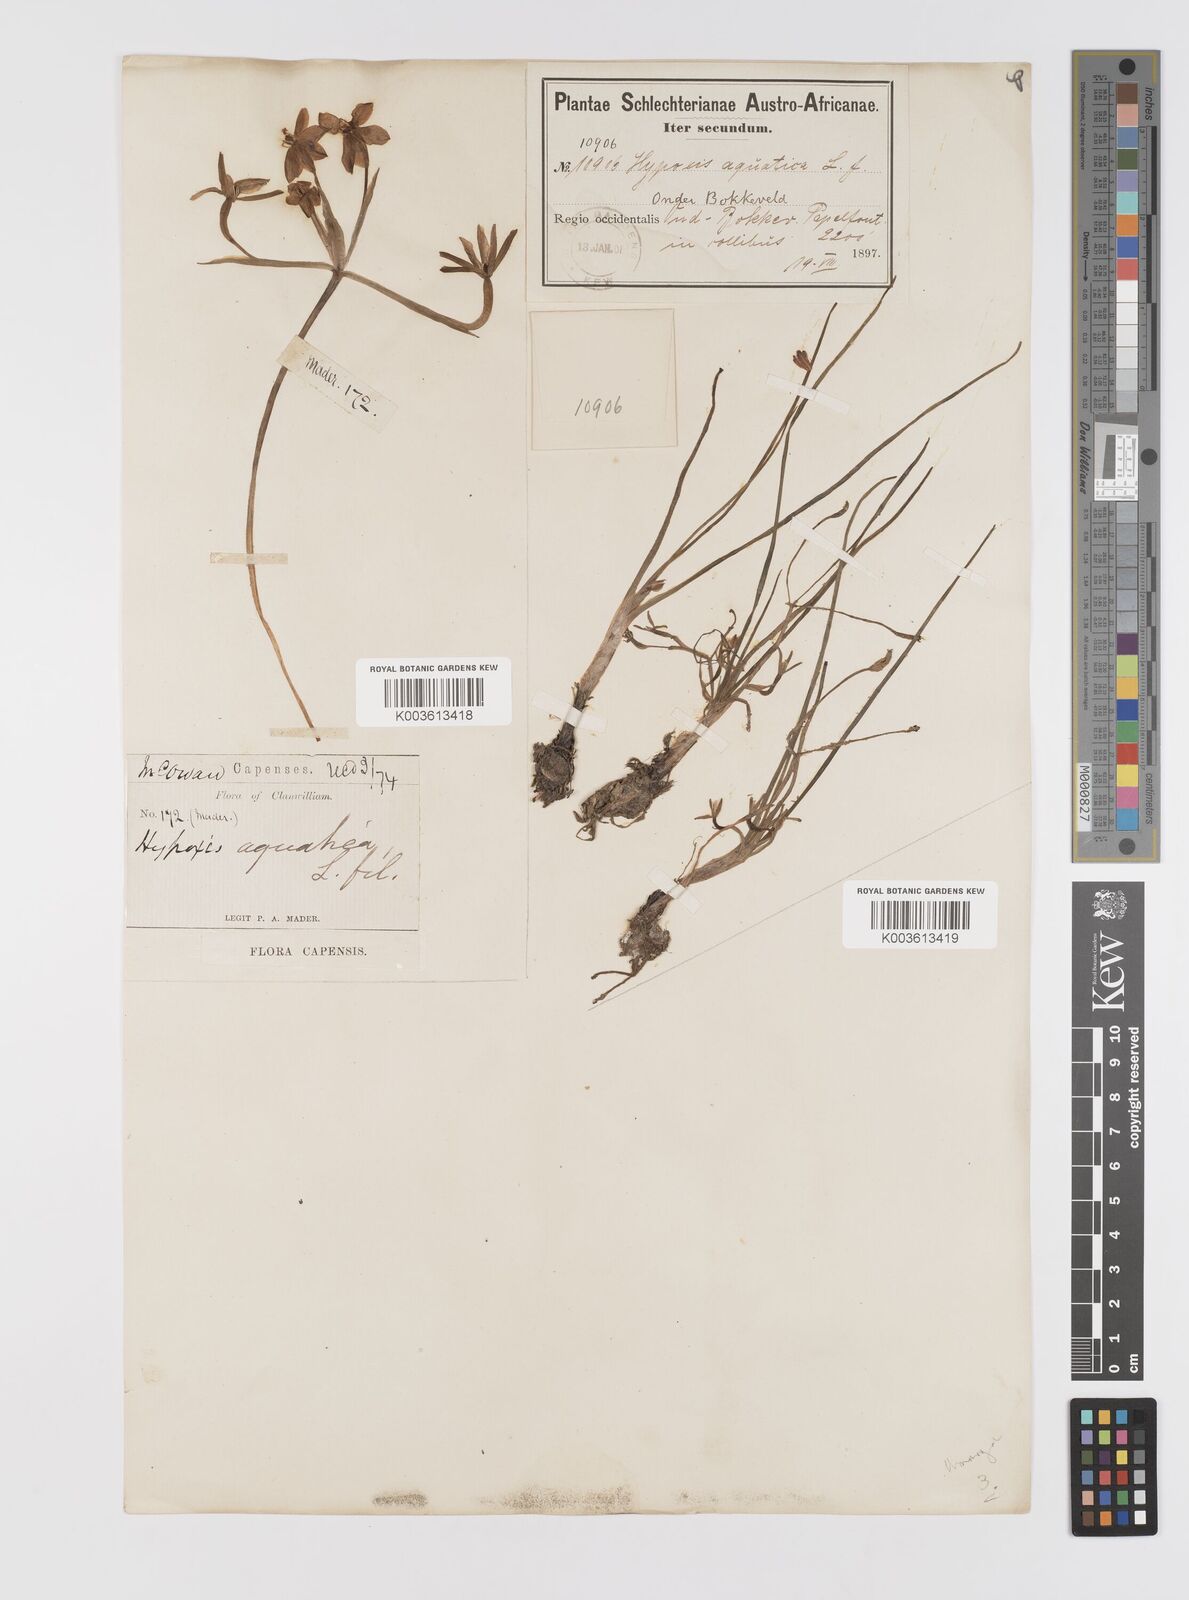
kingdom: Plantae
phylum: Tracheophyta
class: Liliopsida
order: Asparagales
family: Hypoxidaceae
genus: Pauridia
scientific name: Pauridia aquatica
